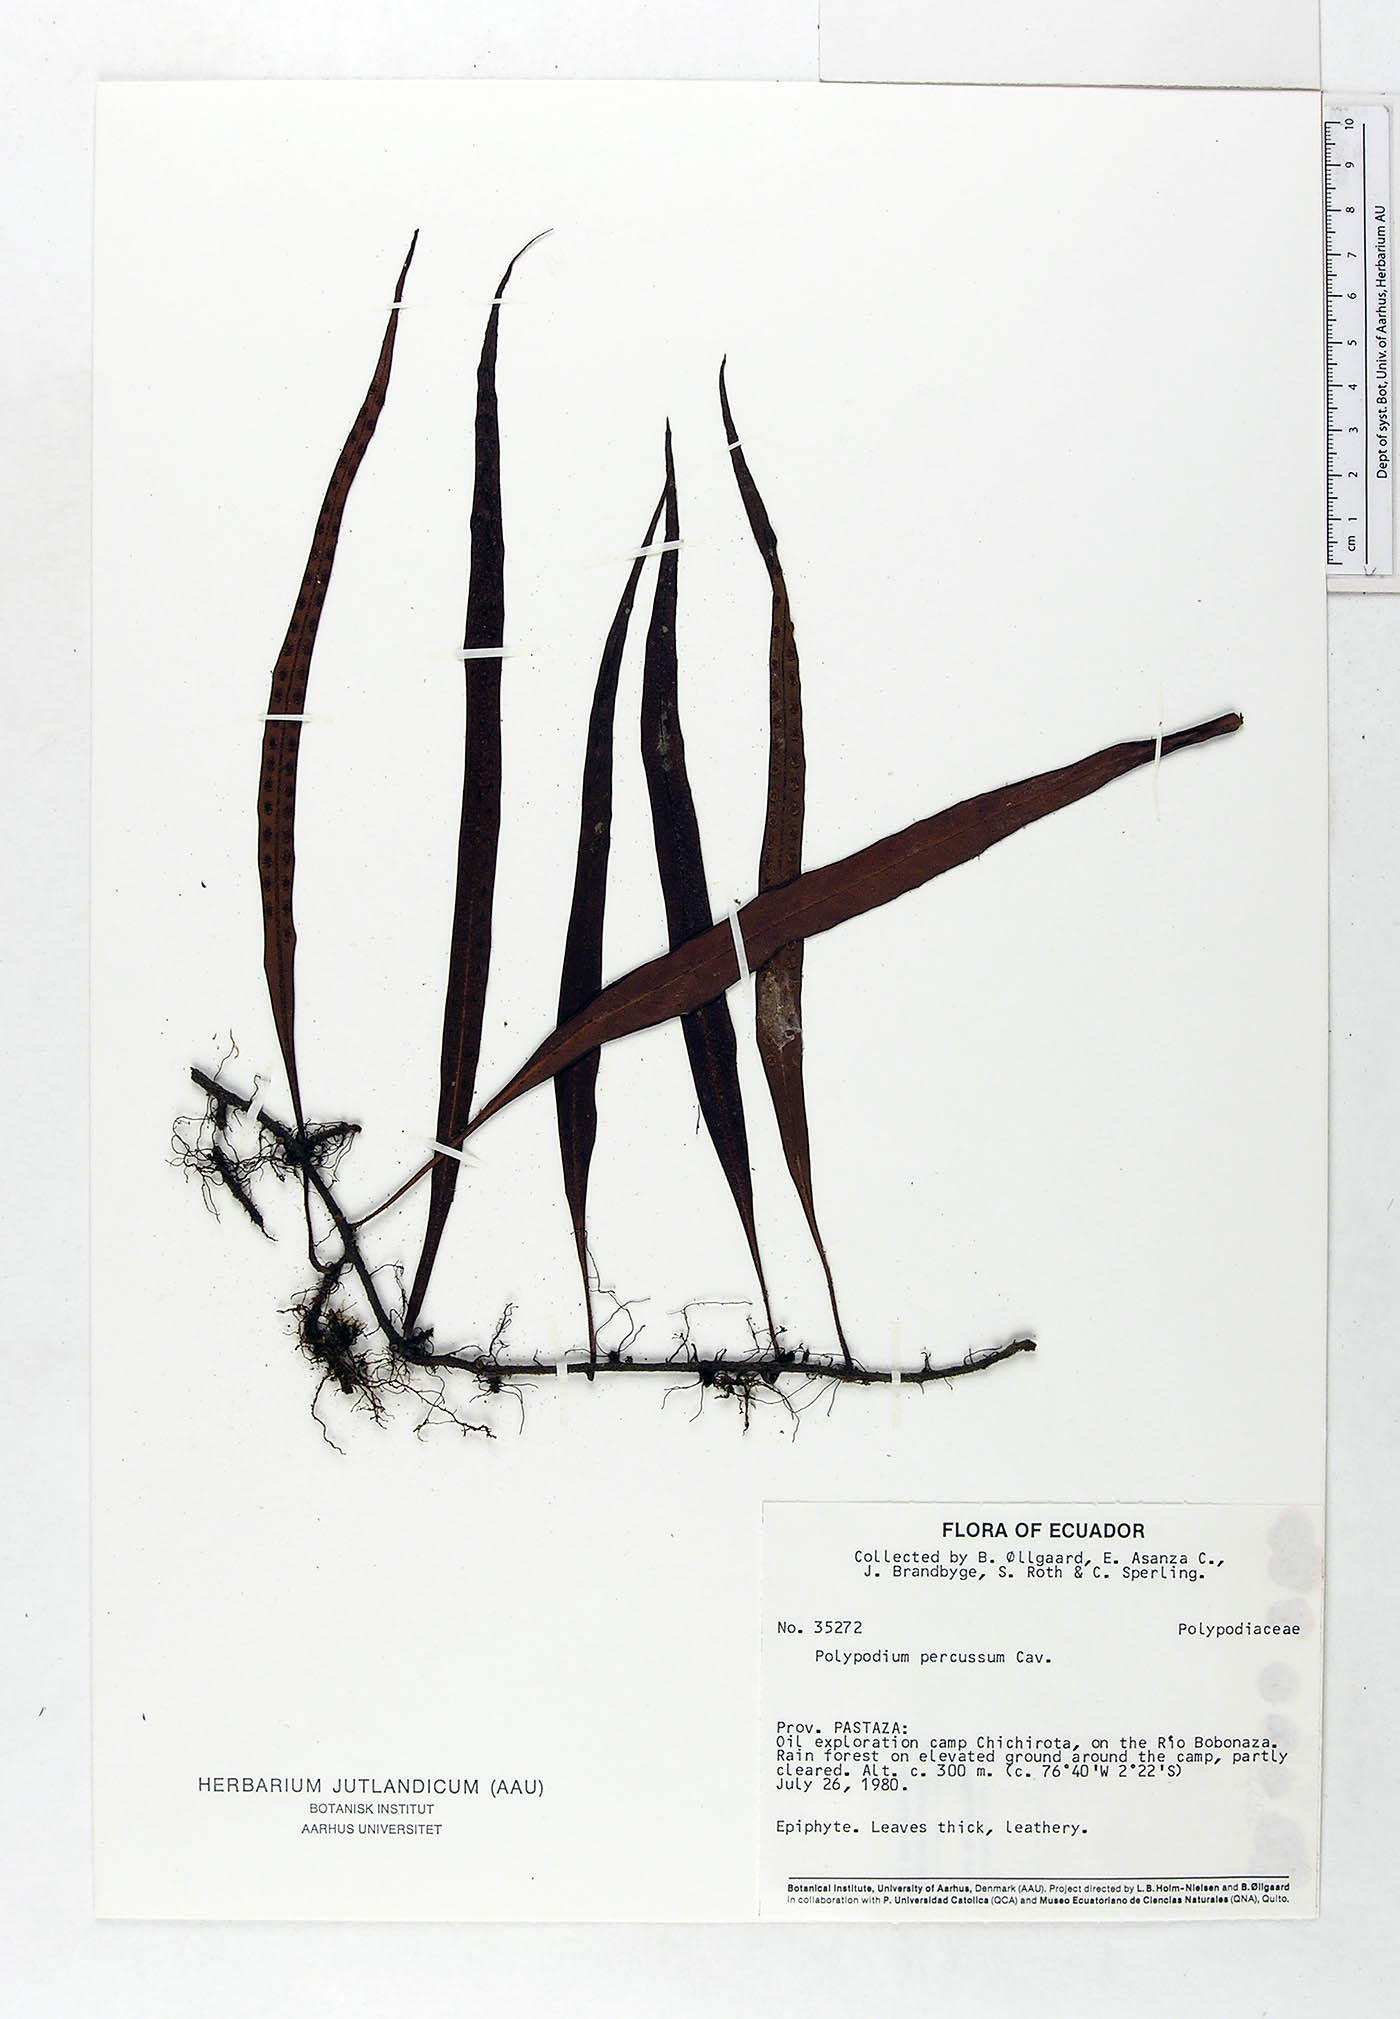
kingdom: Plantae
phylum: Tracheophyta
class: Polypodiopsida
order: Polypodiales
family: Polypodiaceae
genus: Microgramma
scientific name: Microgramma percussa
